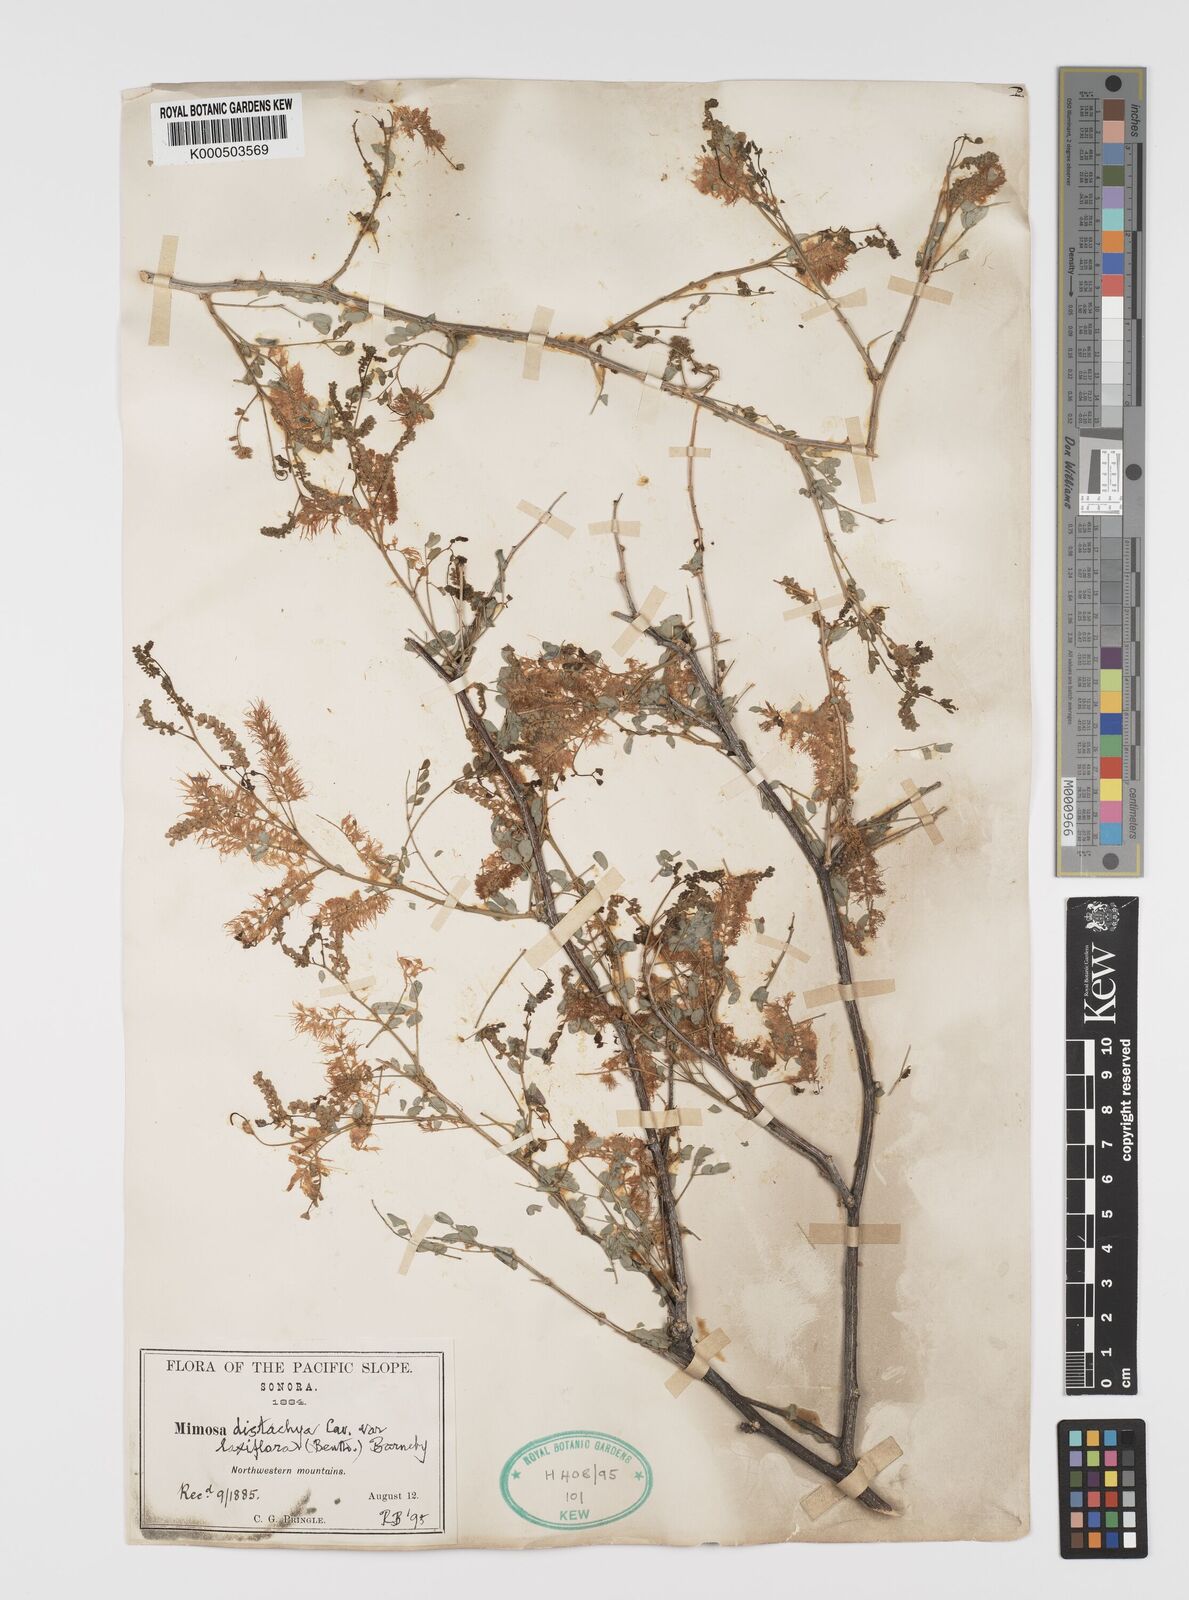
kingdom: Plantae
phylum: Tracheophyta
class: Magnoliopsida
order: Fabales
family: Fabaceae
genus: Mimosa
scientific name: Mimosa distachya
